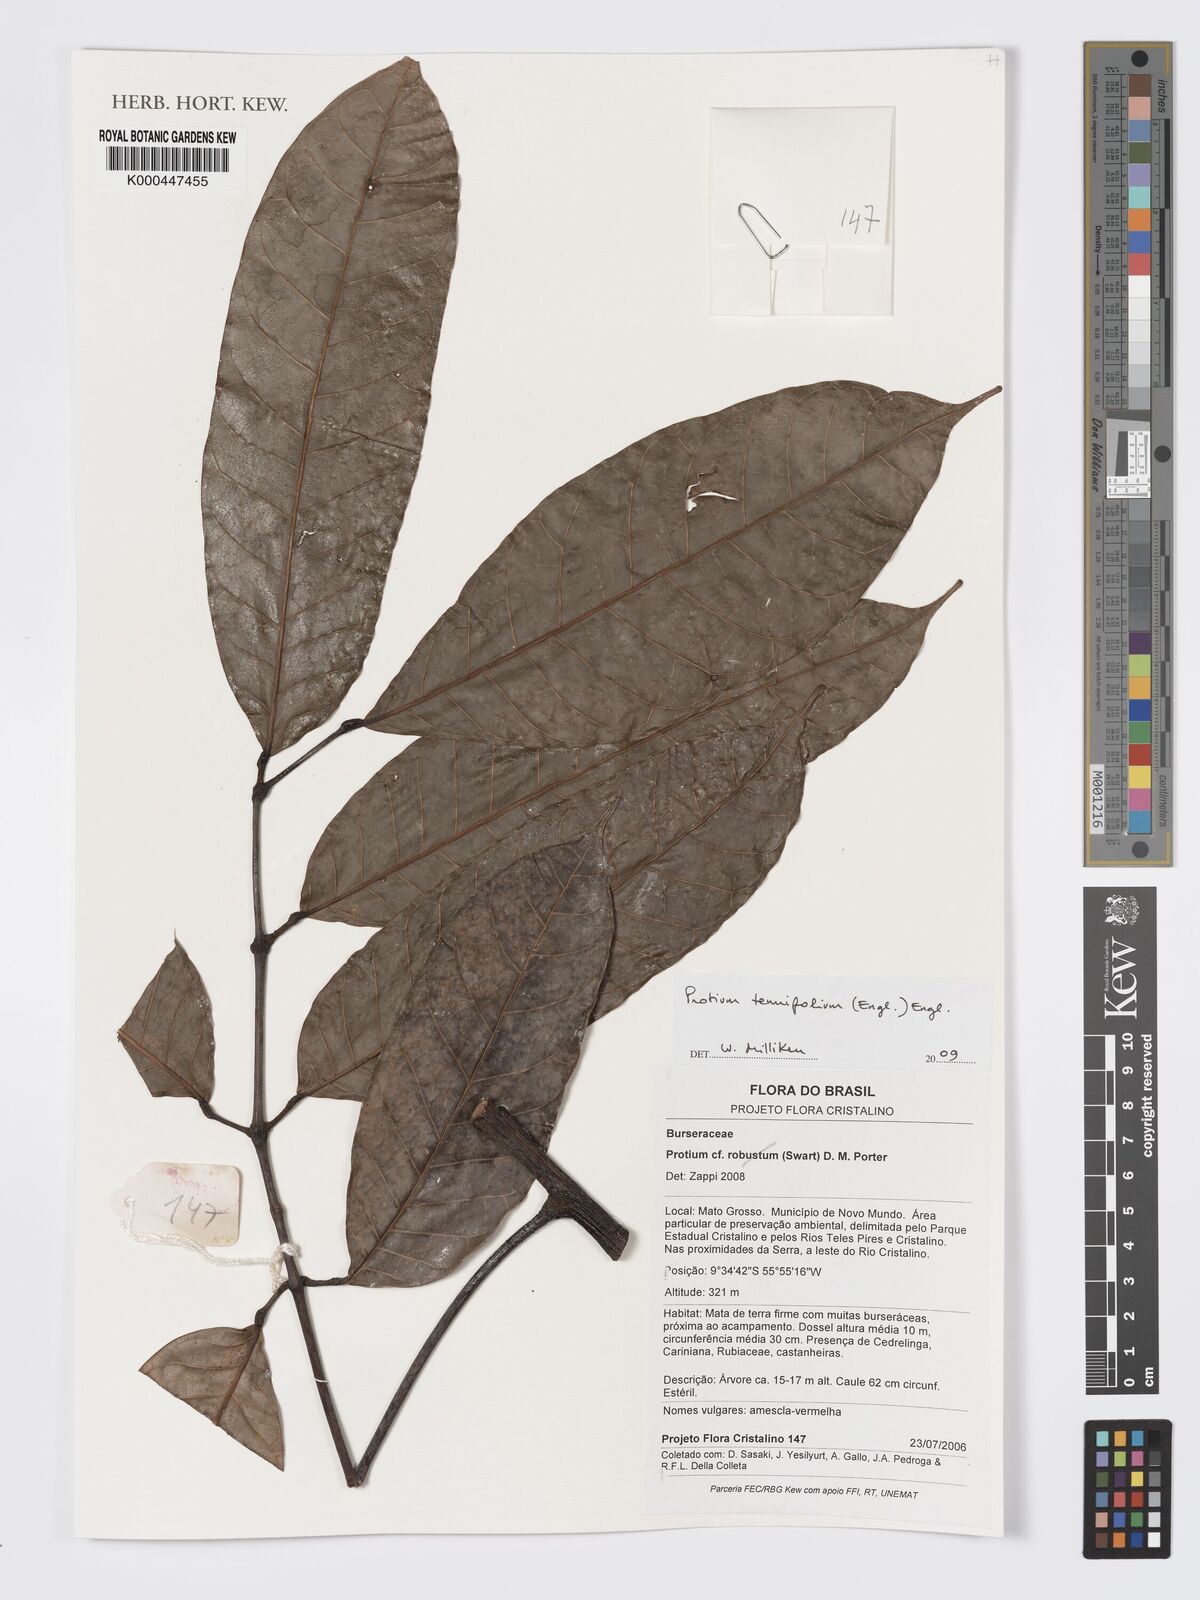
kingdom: Plantae
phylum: Tracheophyta
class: Magnoliopsida
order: Sapindales
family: Burseraceae
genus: Protium
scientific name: Protium tenuifolium
